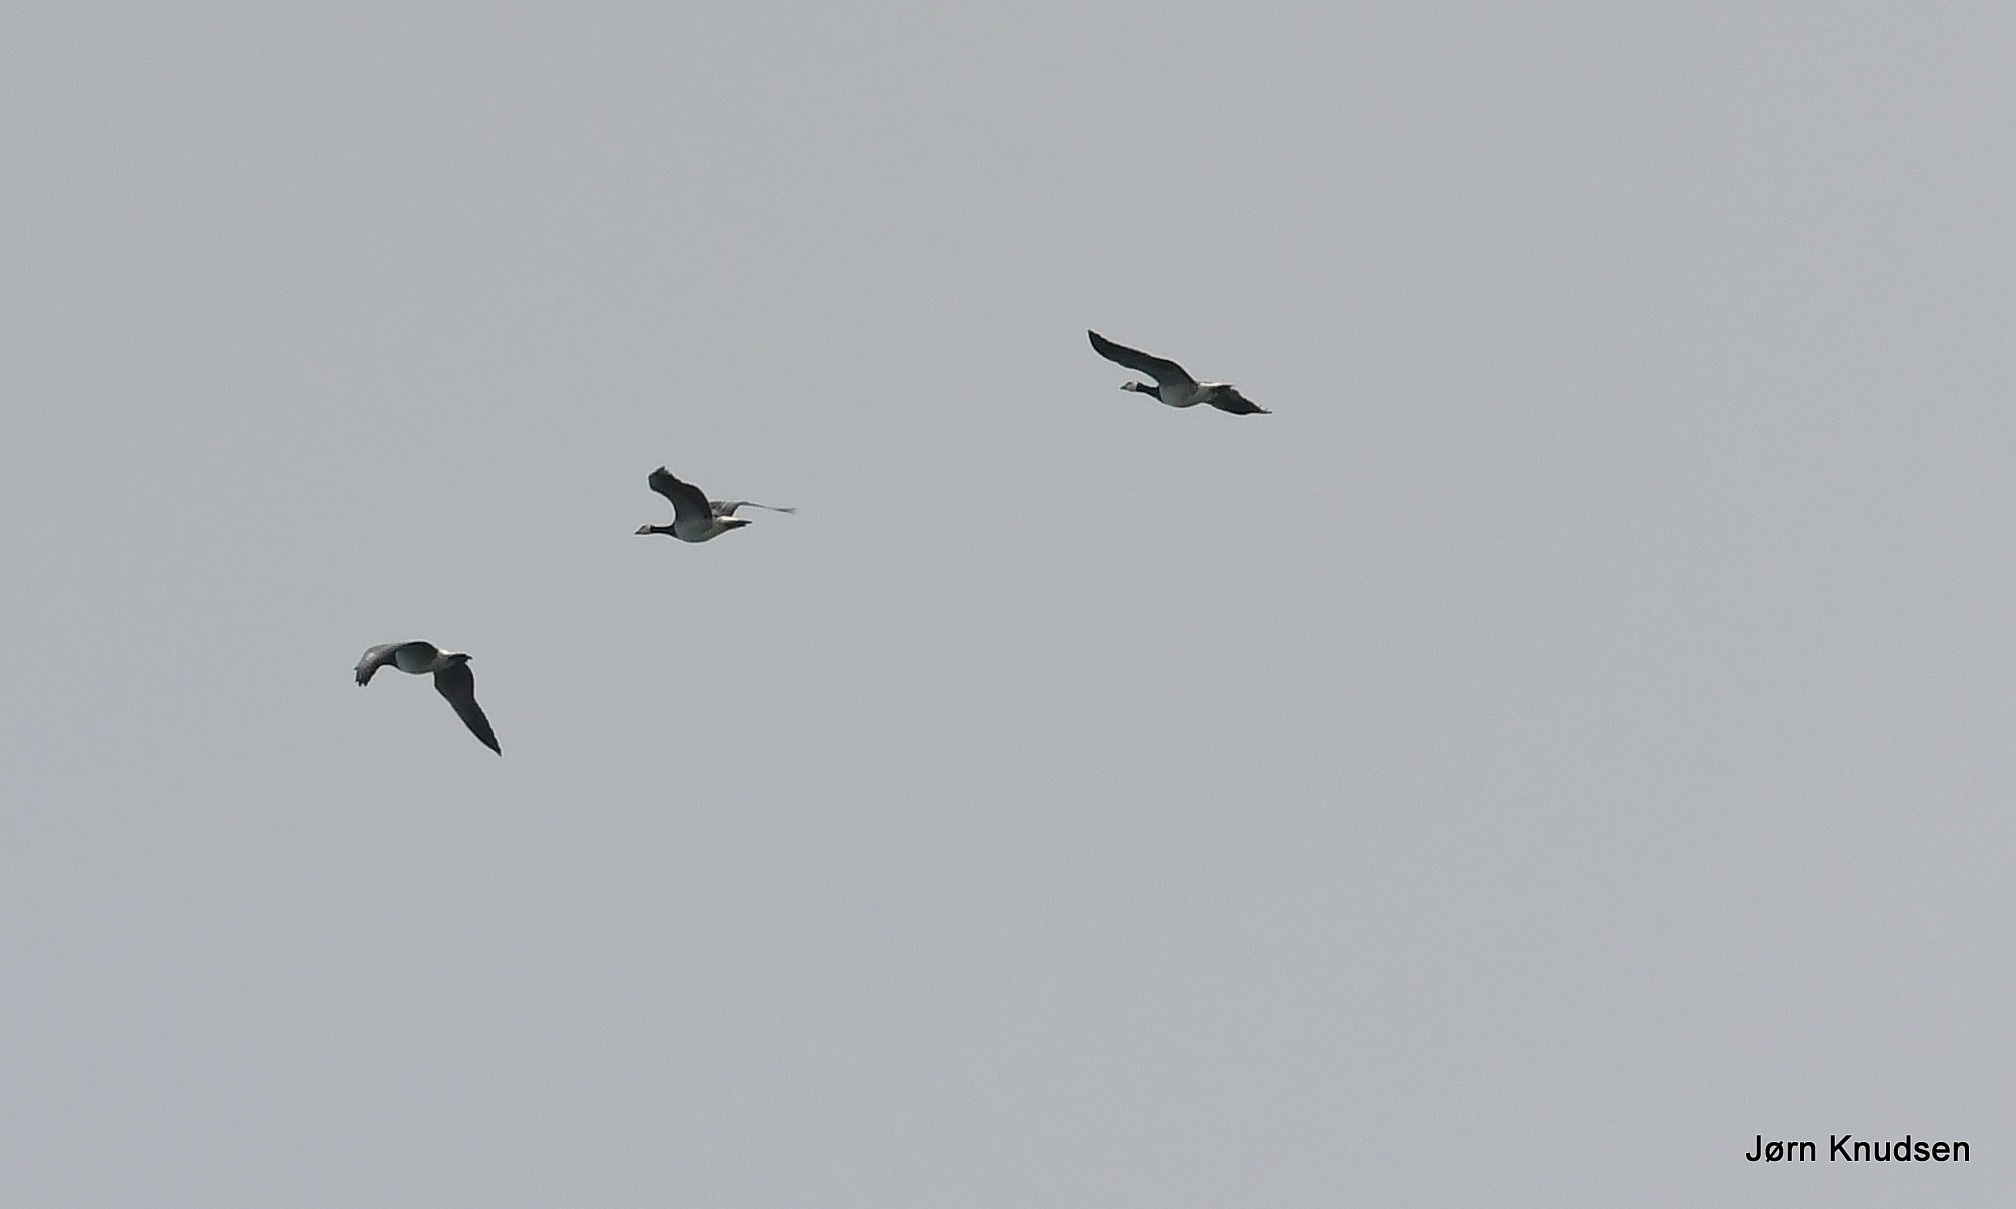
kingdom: Animalia
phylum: Chordata
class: Aves
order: Anseriformes
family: Anatidae
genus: Branta
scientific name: Branta leucopsis
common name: Bramgås
